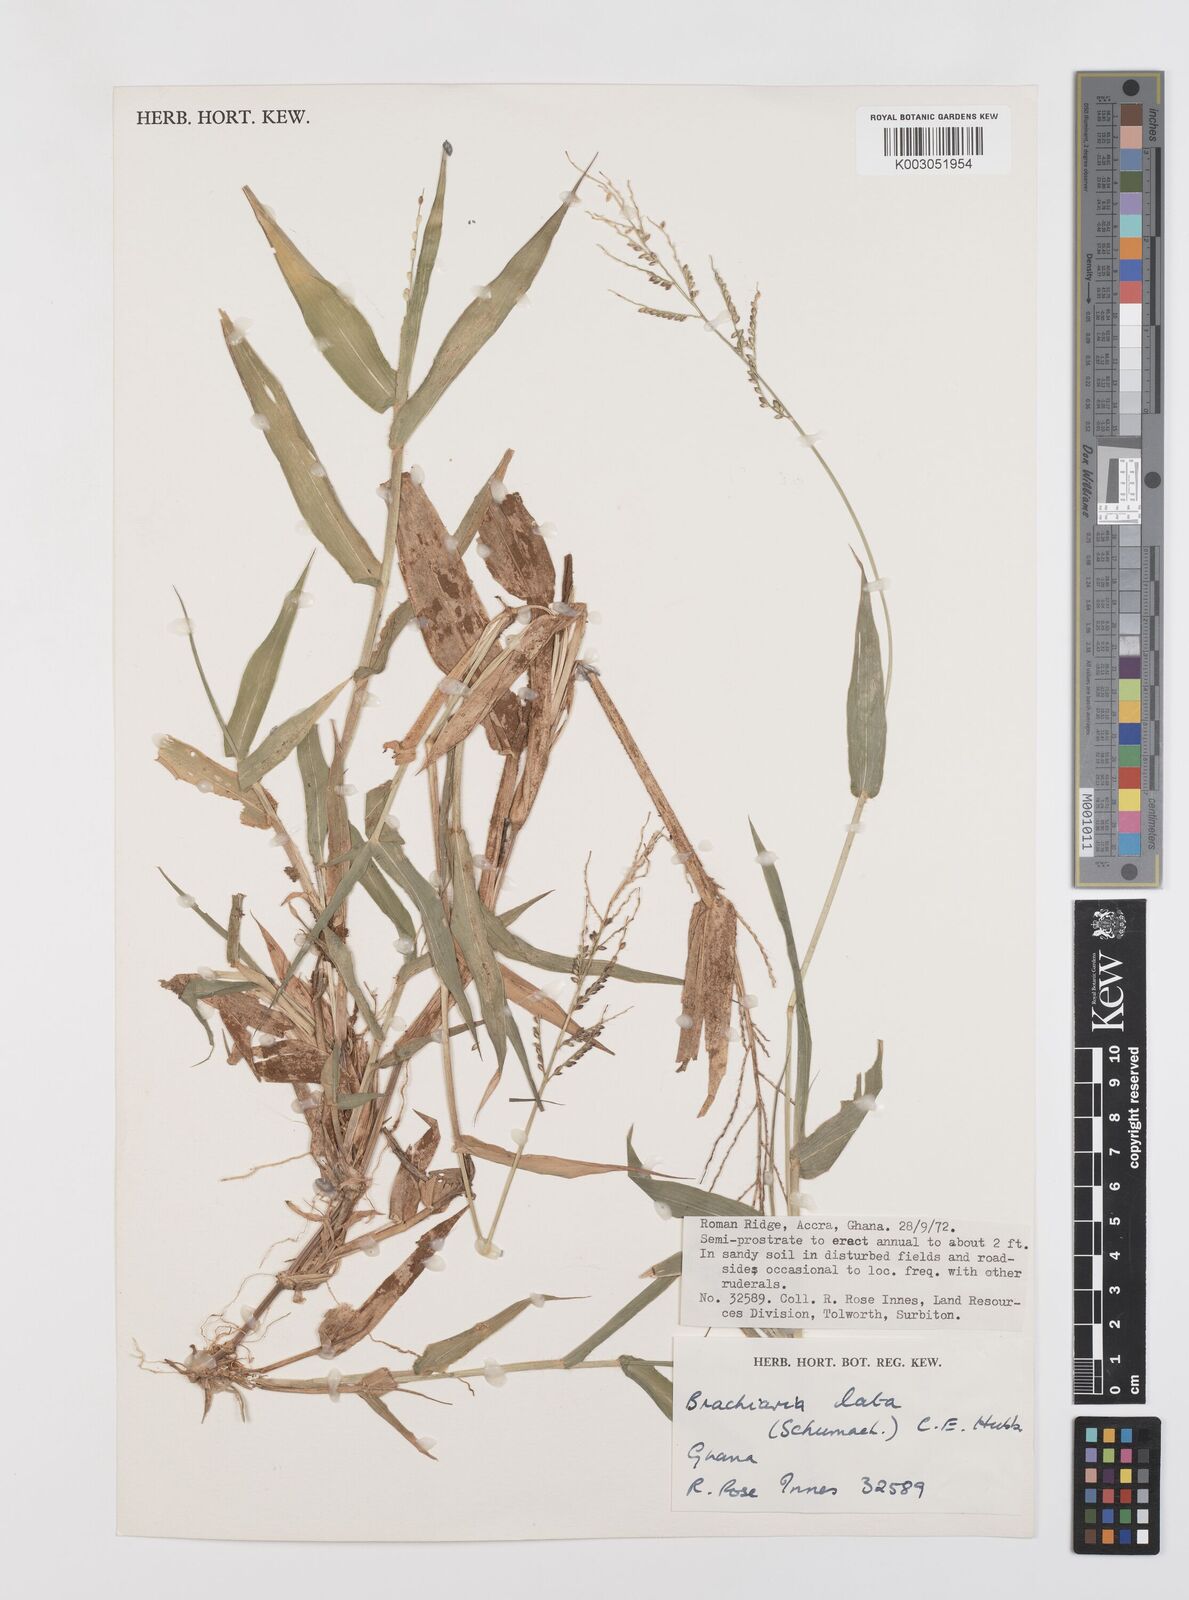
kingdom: Plantae
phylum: Tracheophyta
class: Liliopsida
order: Poales
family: Poaceae
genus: Urochloa
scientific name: Urochloa lata
